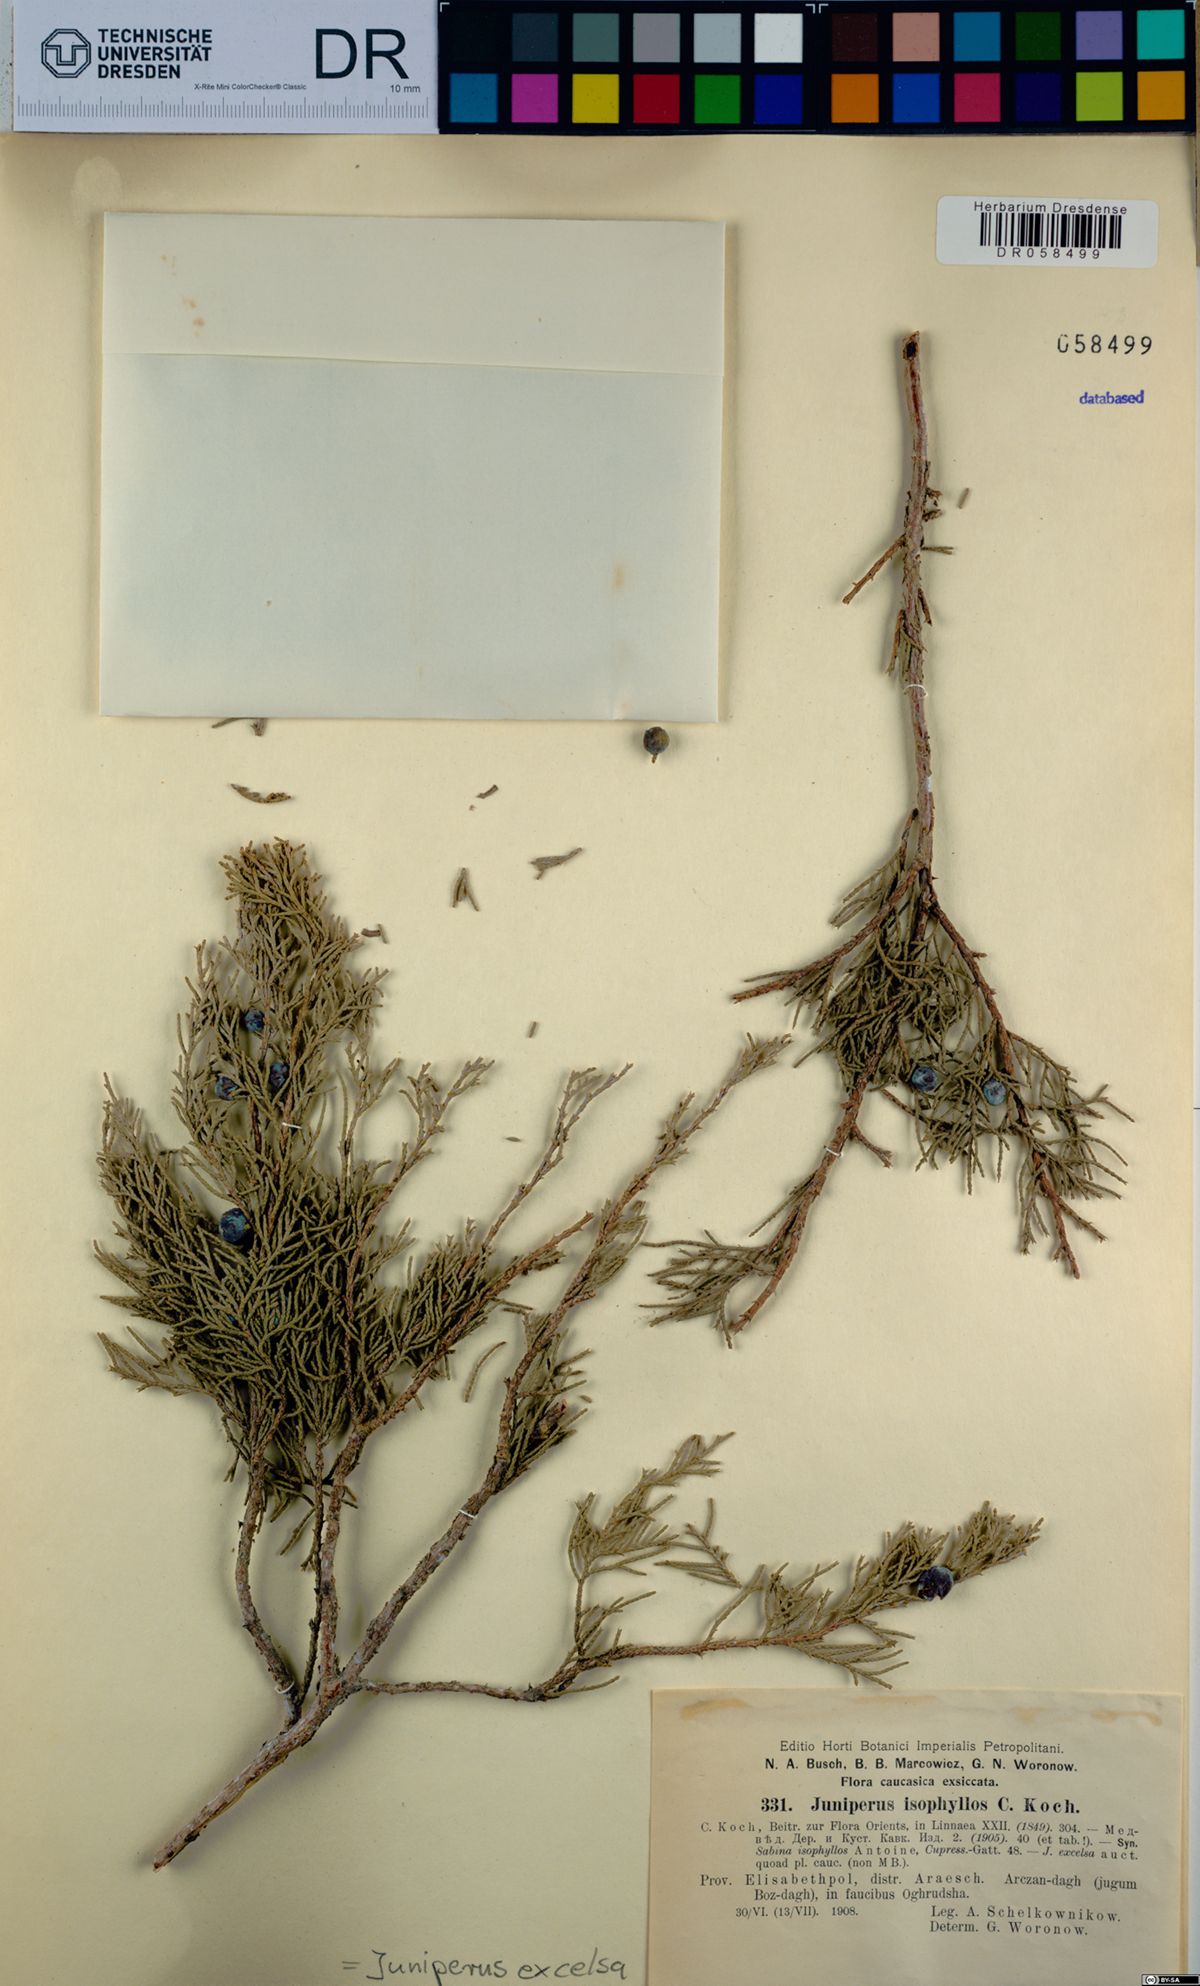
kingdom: Plantae
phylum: Tracheophyta
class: Pinopsida
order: Pinales
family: Cupressaceae
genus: Juniperus
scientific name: Juniperus excelsa
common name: Crimean juniper
